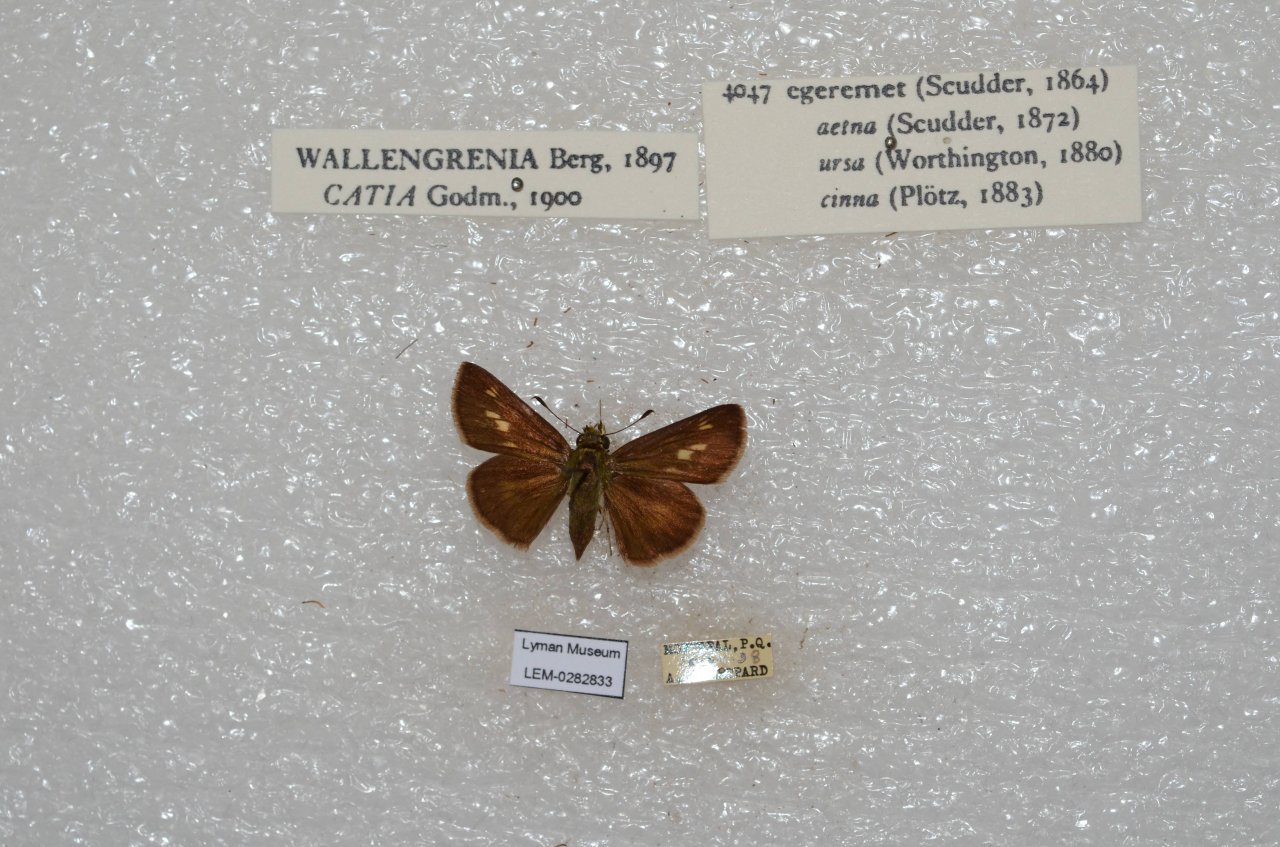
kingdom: Animalia
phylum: Arthropoda
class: Insecta
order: Lepidoptera
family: Hesperiidae
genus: Polites
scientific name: Polites egeremet
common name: Northern Broken-Dash
